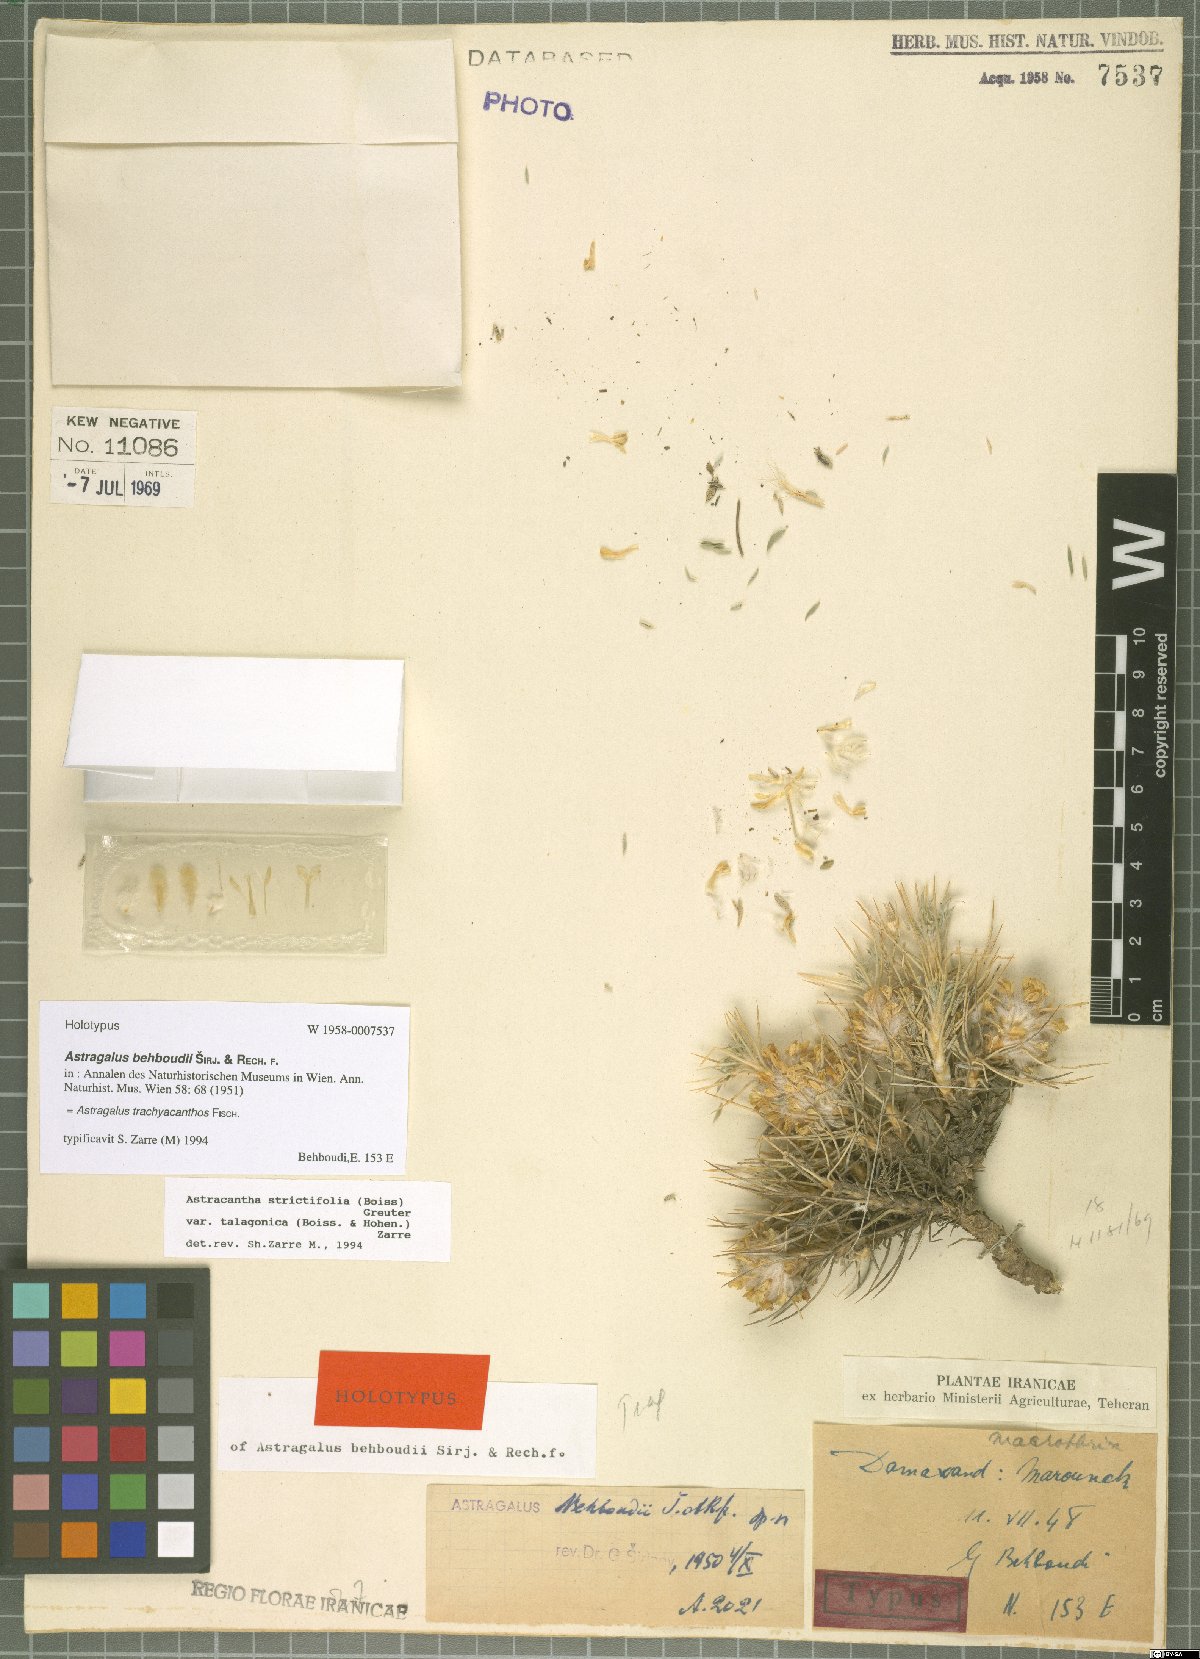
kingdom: Plantae
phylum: Tracheophyta
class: Magnoliopsida
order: Fabales
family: Fabaceae
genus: Astragalus
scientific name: Astragalus trachyacanthos
